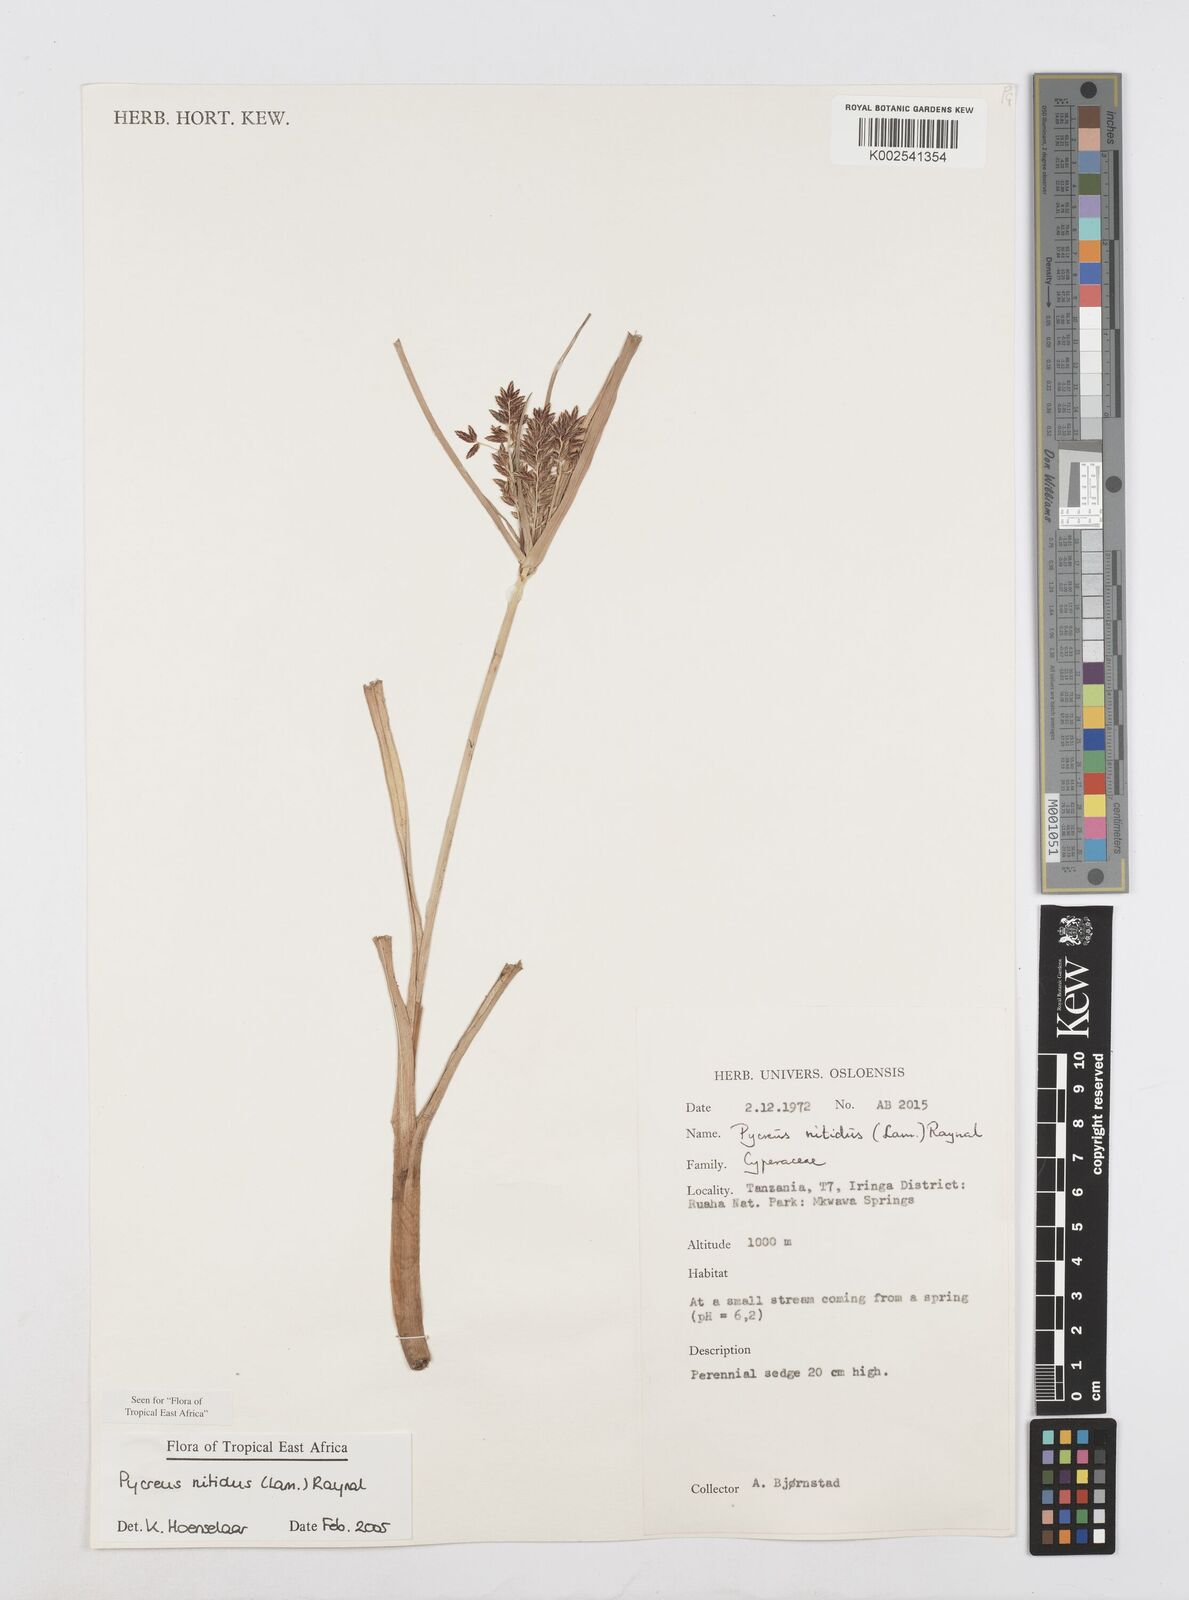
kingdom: Plantae
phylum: Tracheophyta
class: Liliopsida
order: Poales
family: Cyperaceae
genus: Cyperus
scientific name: Cyperus nitidus
